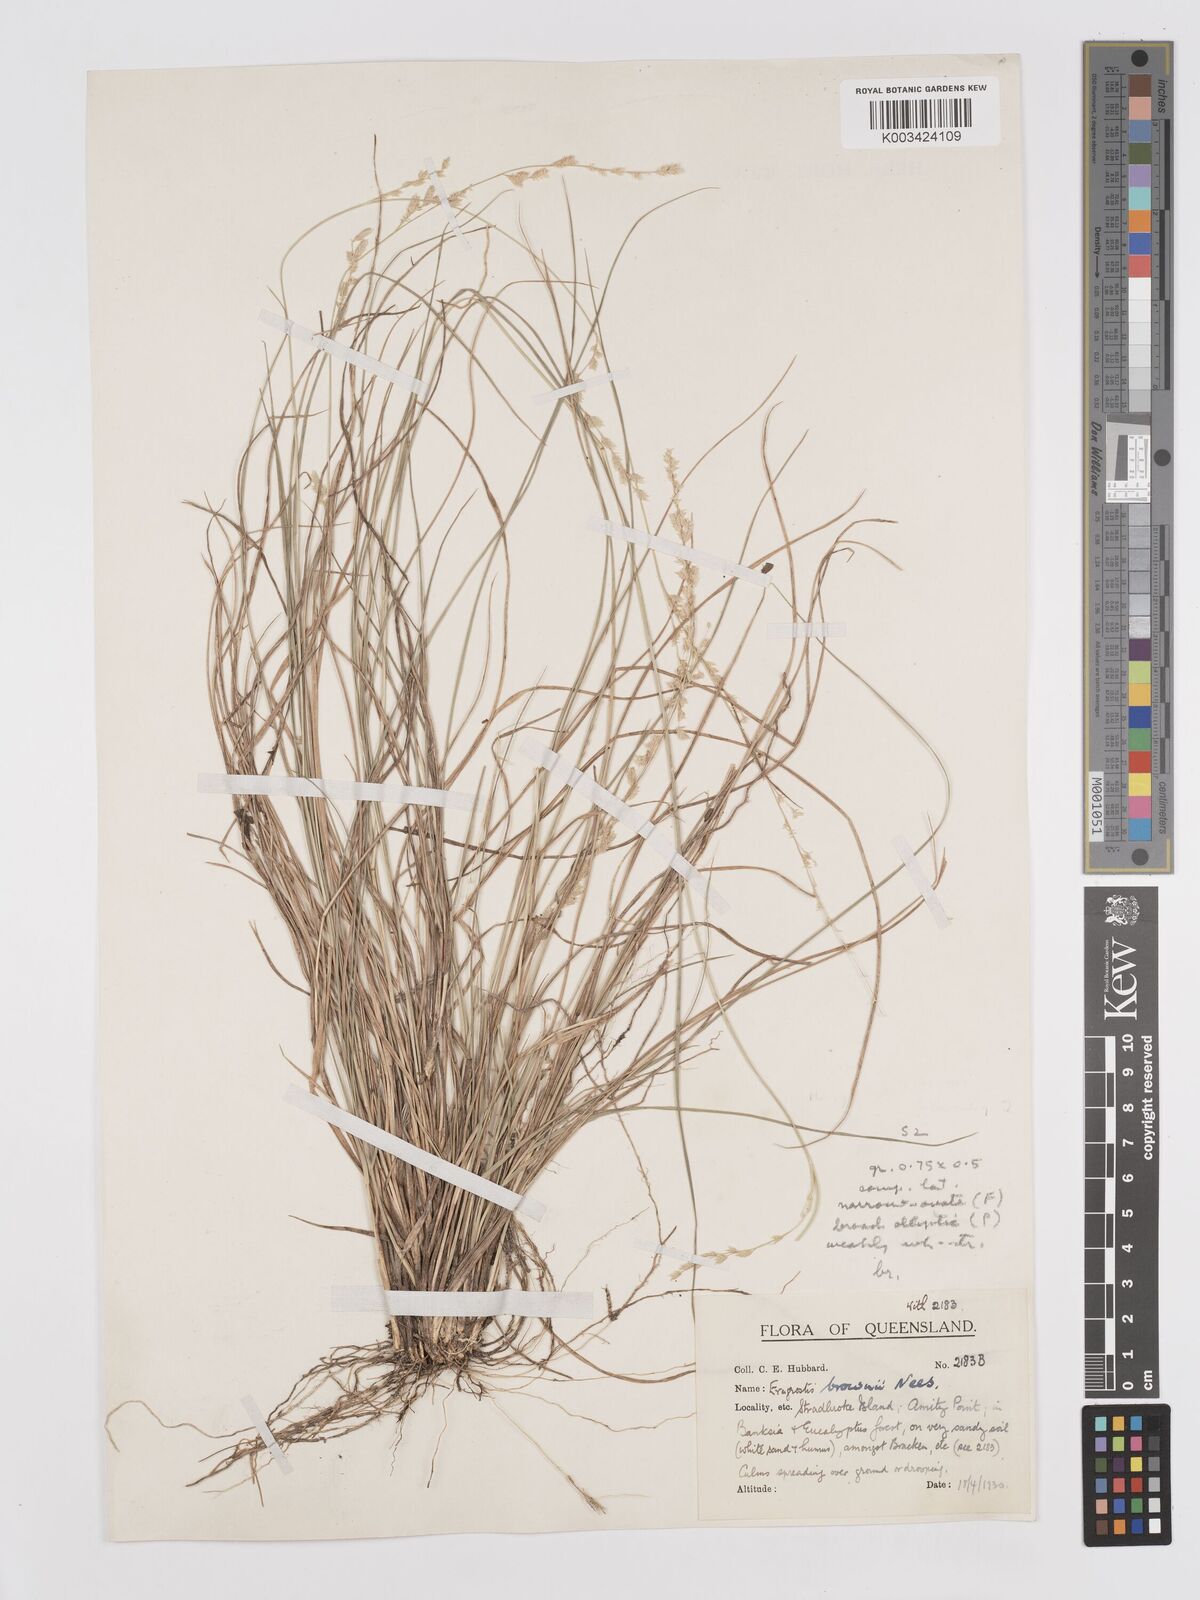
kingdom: Plantae
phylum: Tracheophyta
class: Liliopsida
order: Poales
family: Poaceae
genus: Eragrostis
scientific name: Eragrostis brownii
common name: Lovegrass
